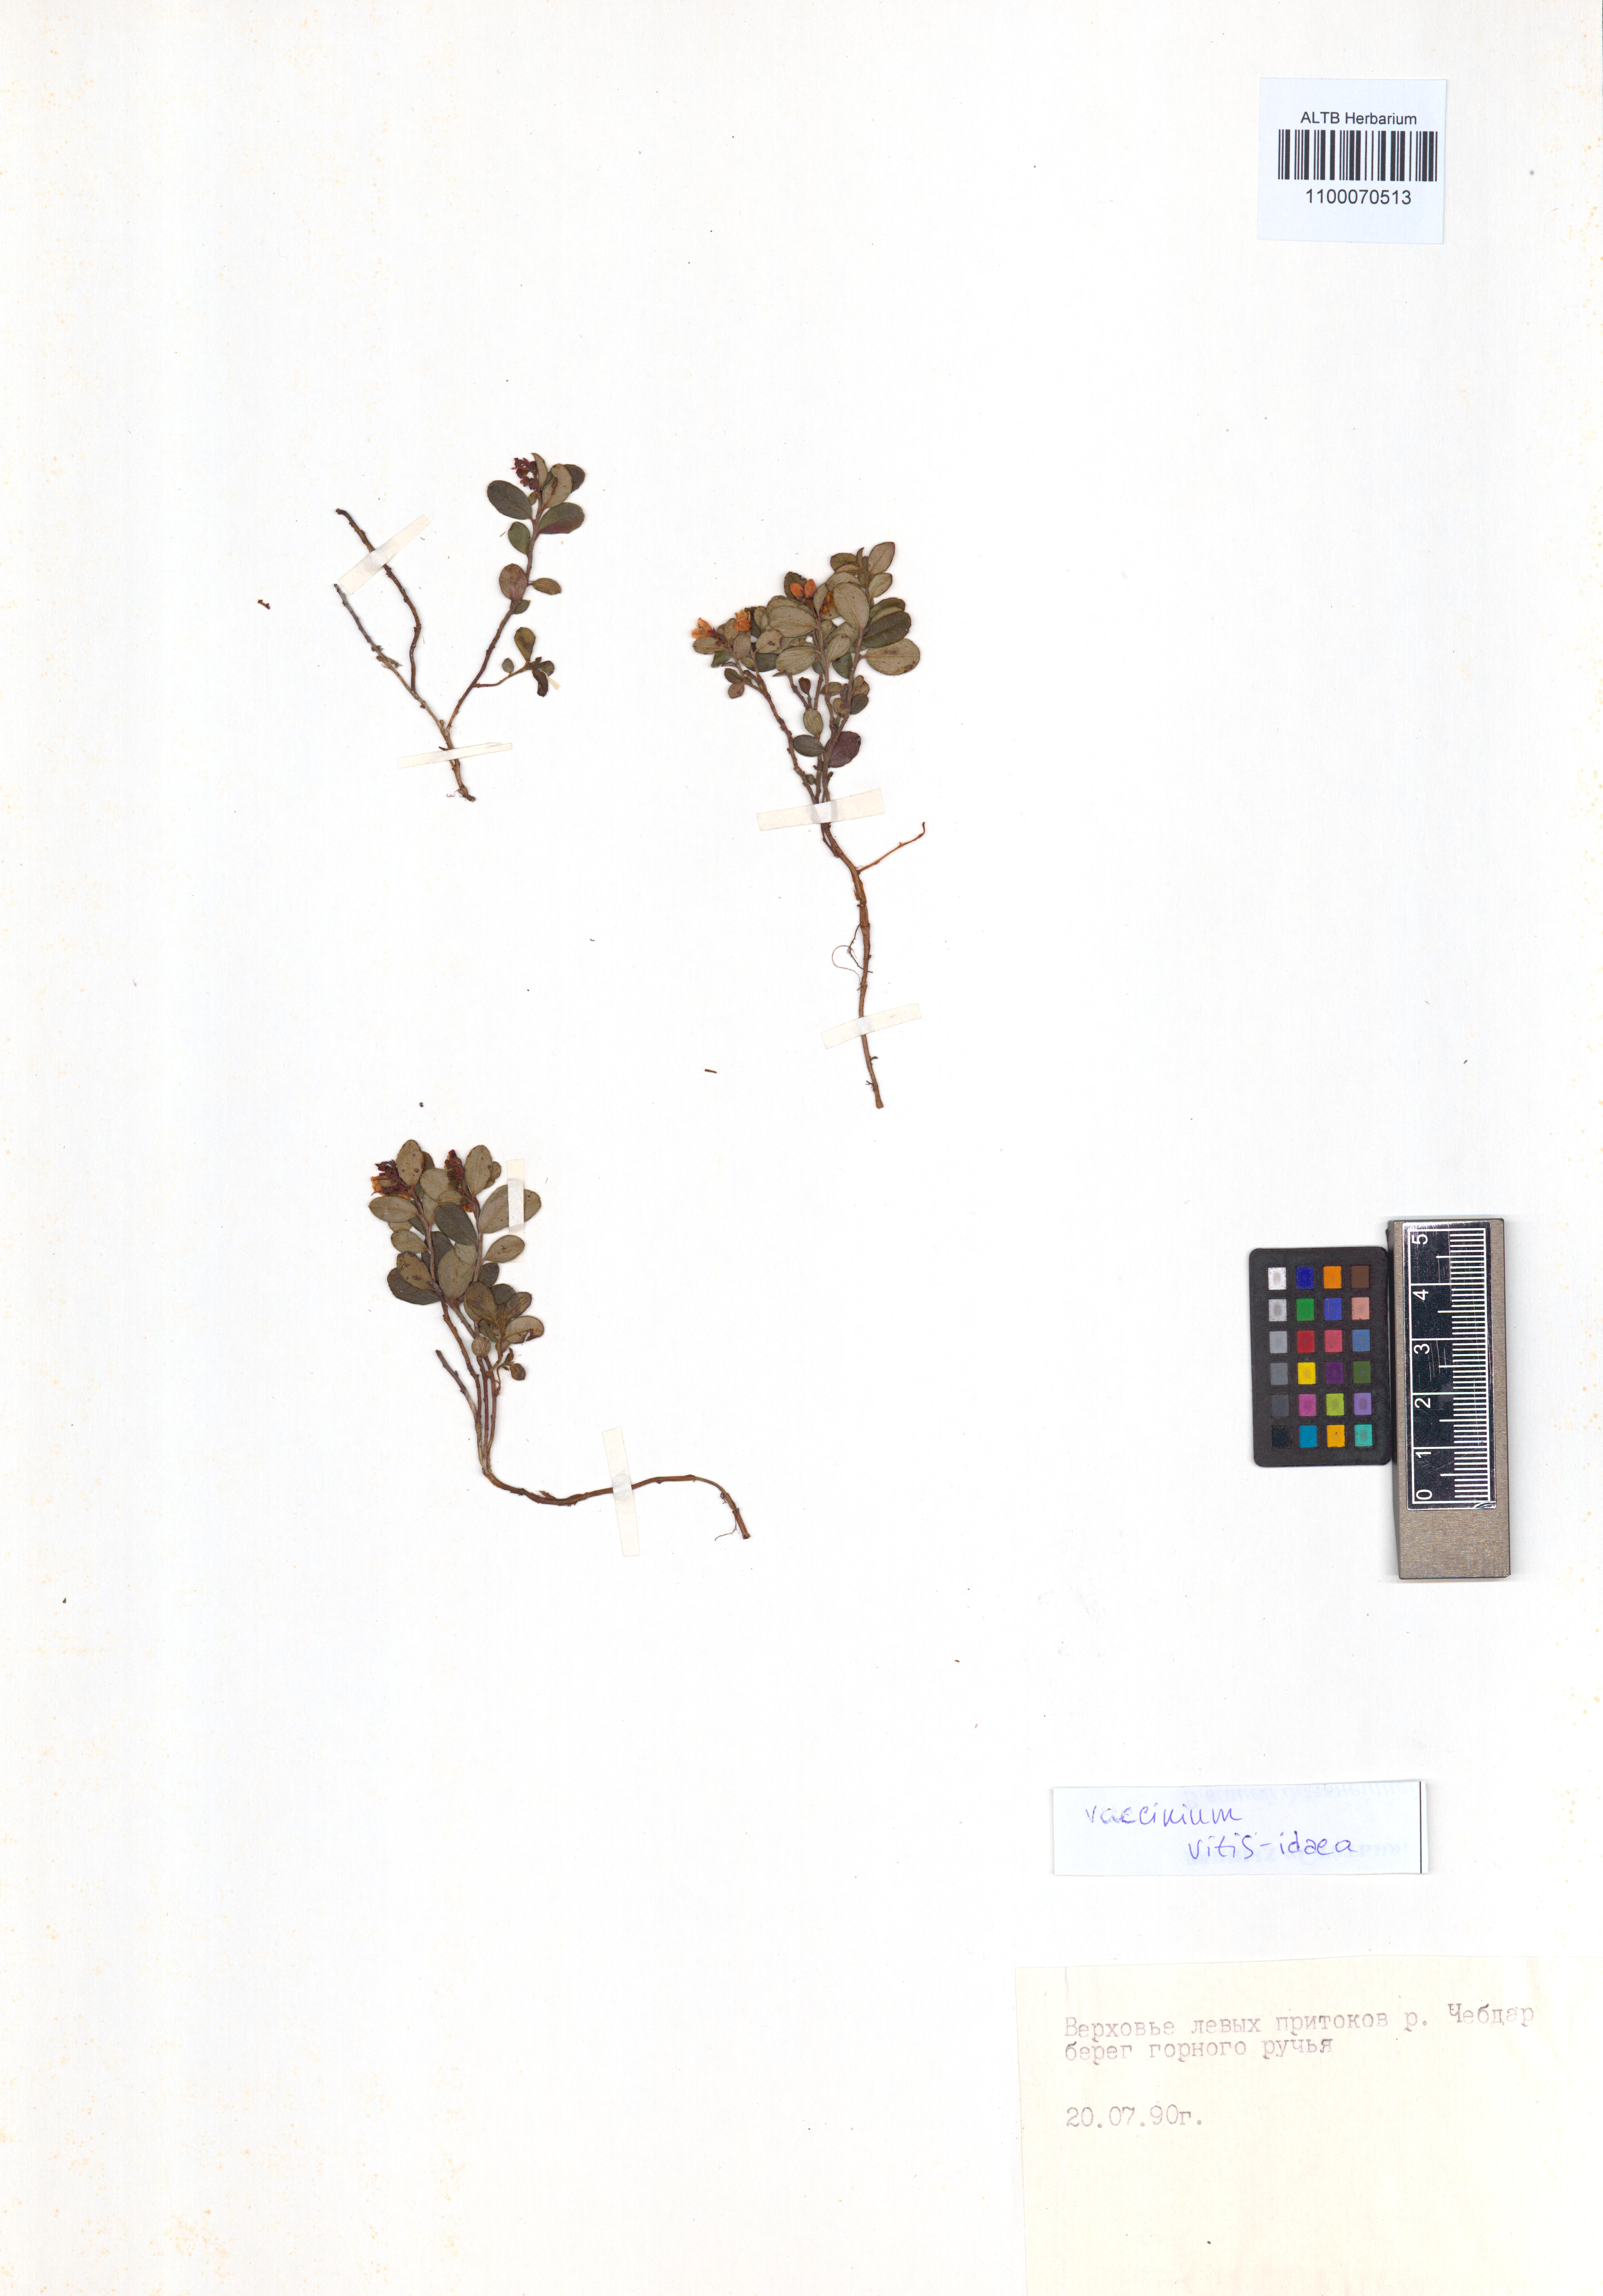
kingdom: Plantae
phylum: Tracheophyta
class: Magnoliopsida
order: Ericales
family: Ericaceae
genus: Vaccinium
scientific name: Vaccinium vitis-idaea
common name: Cowberry
